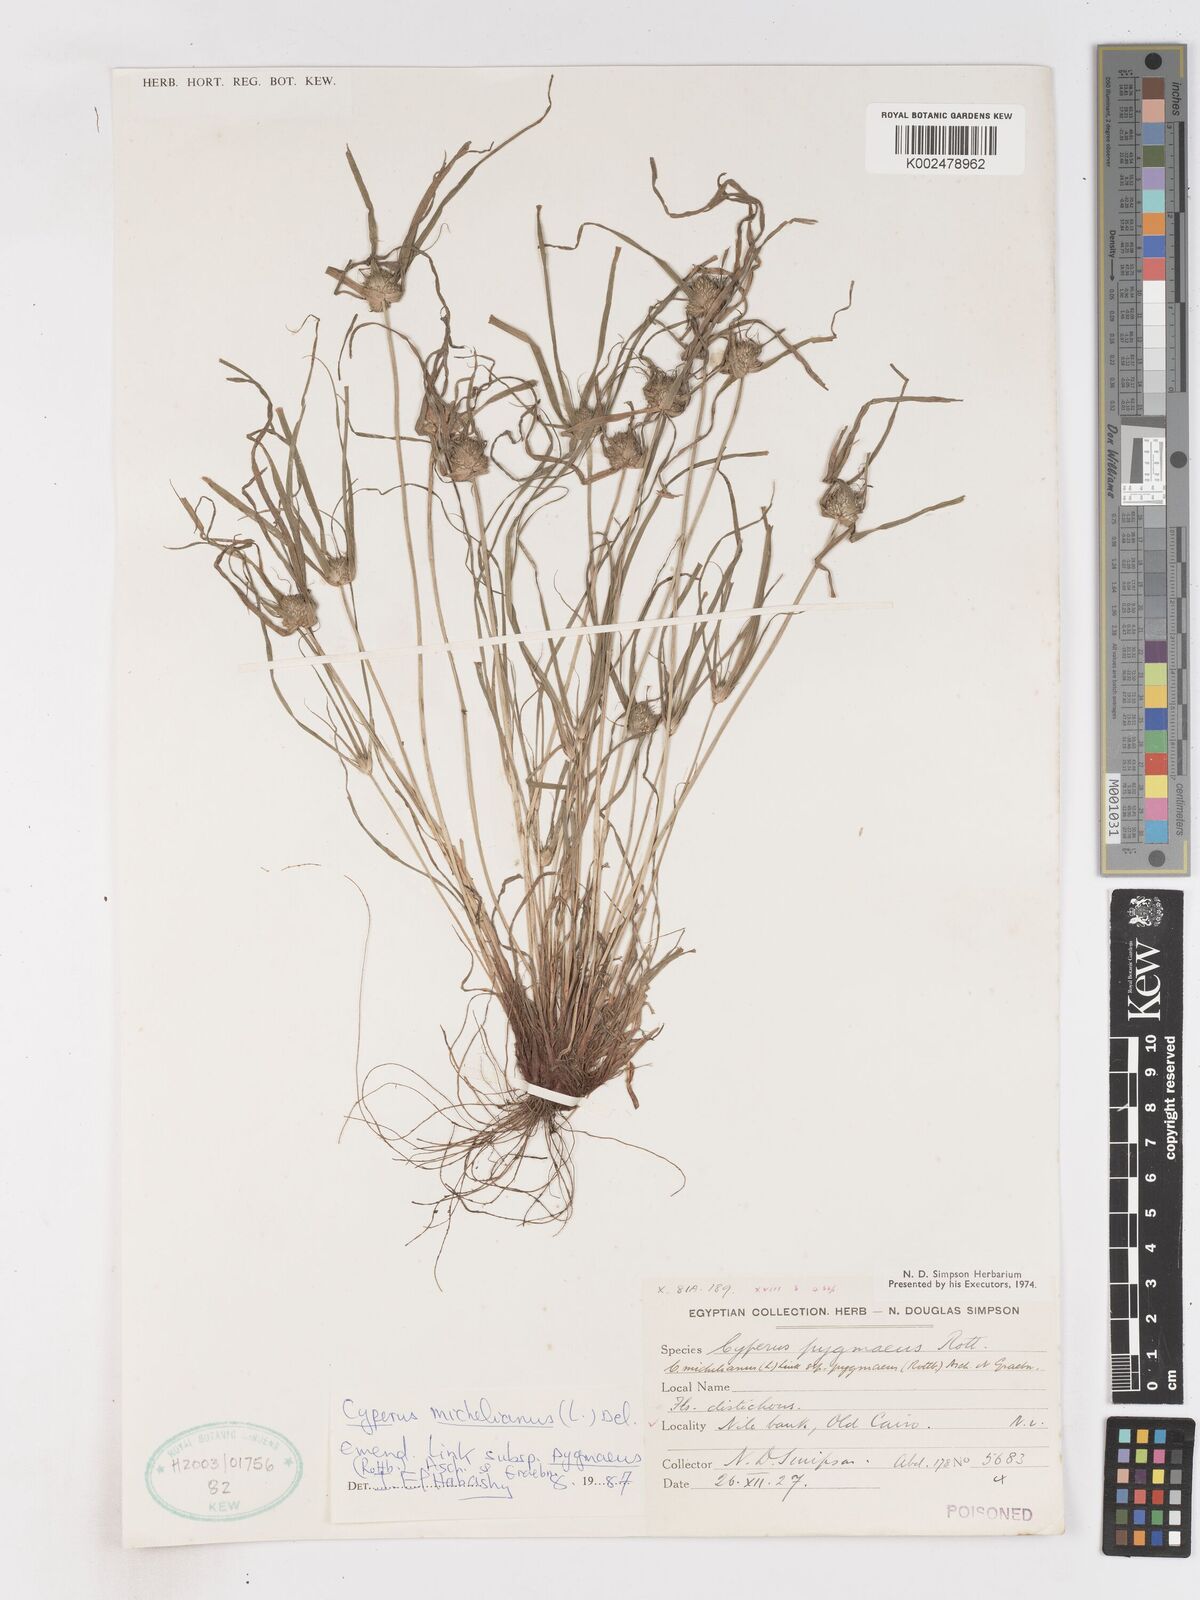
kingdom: Plantae
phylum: Tracheophyta
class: Liliopsida
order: Poales
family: Cyperaceae
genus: Cyperus
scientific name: Cyperus michelianus
